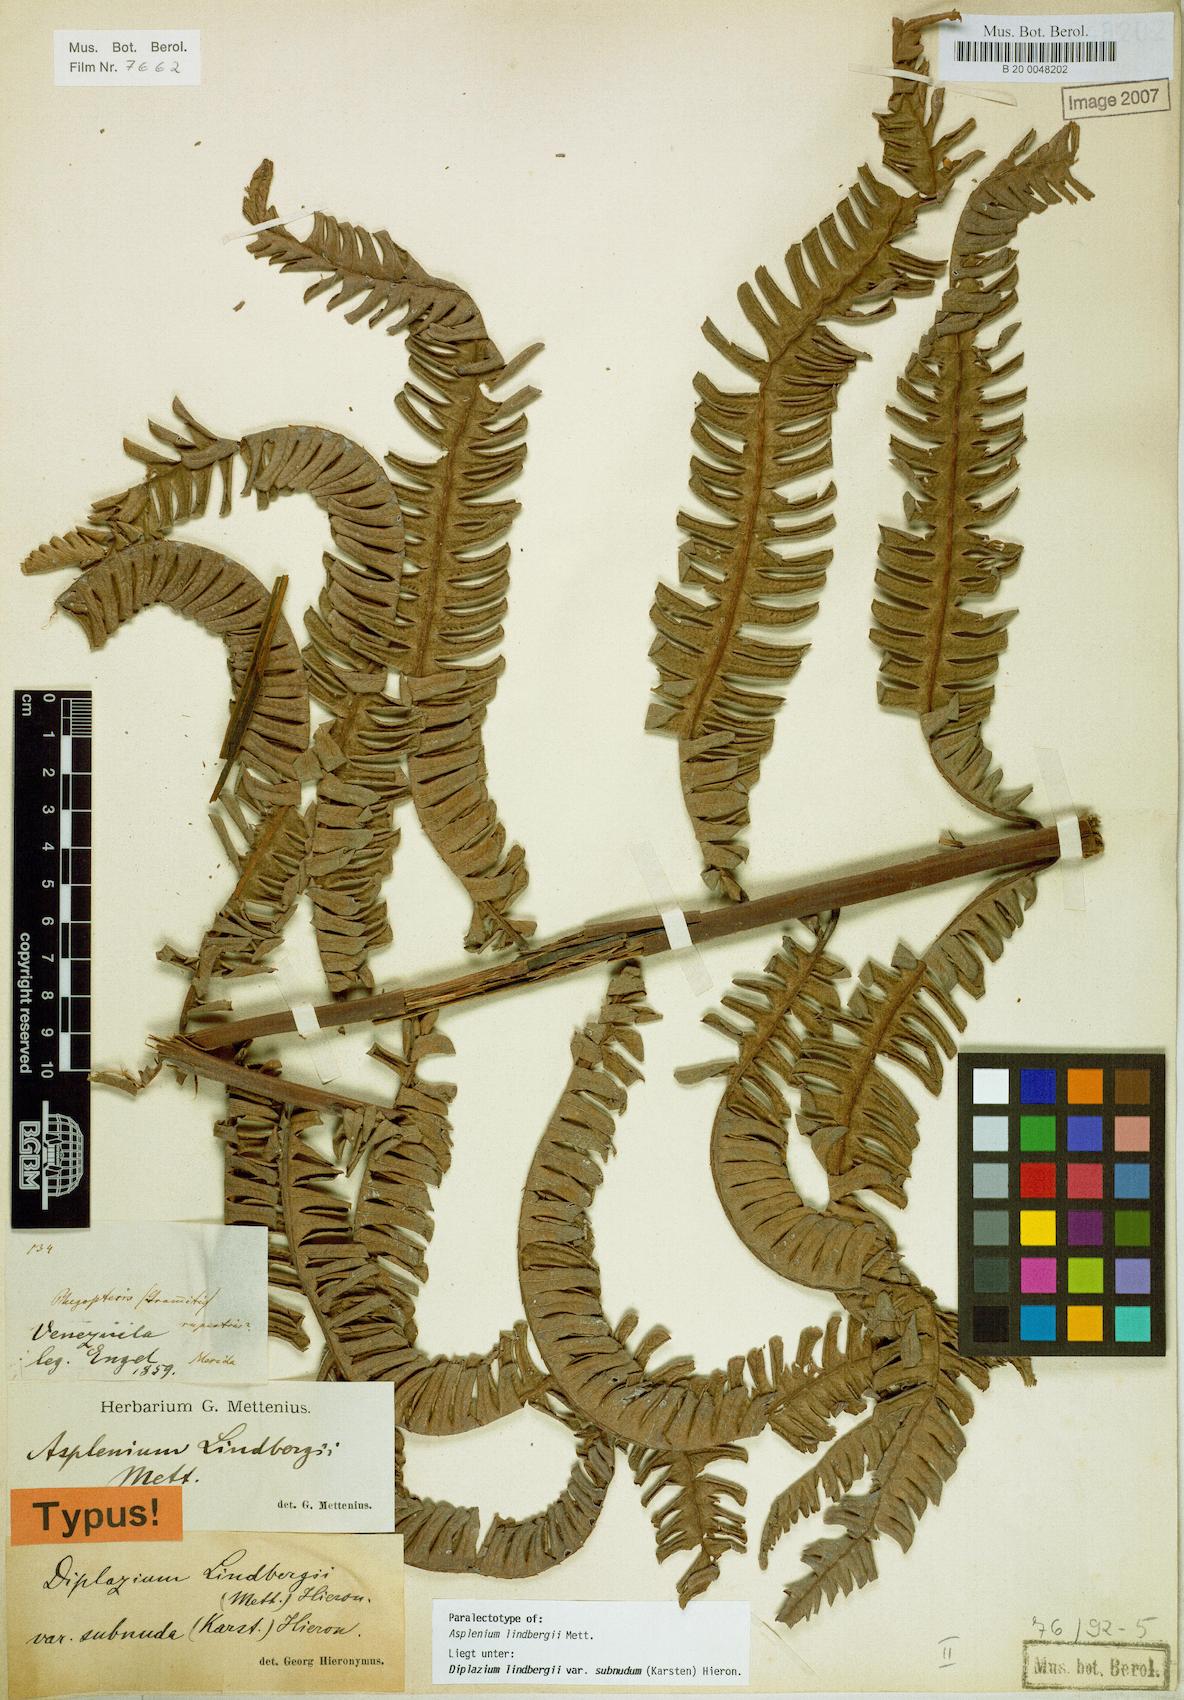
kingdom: Plantae
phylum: Tracheophyta
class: Polypodiopsida
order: Polypodiales
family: Athyriaceae
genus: Diplazium
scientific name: Diplazium lindbergii
